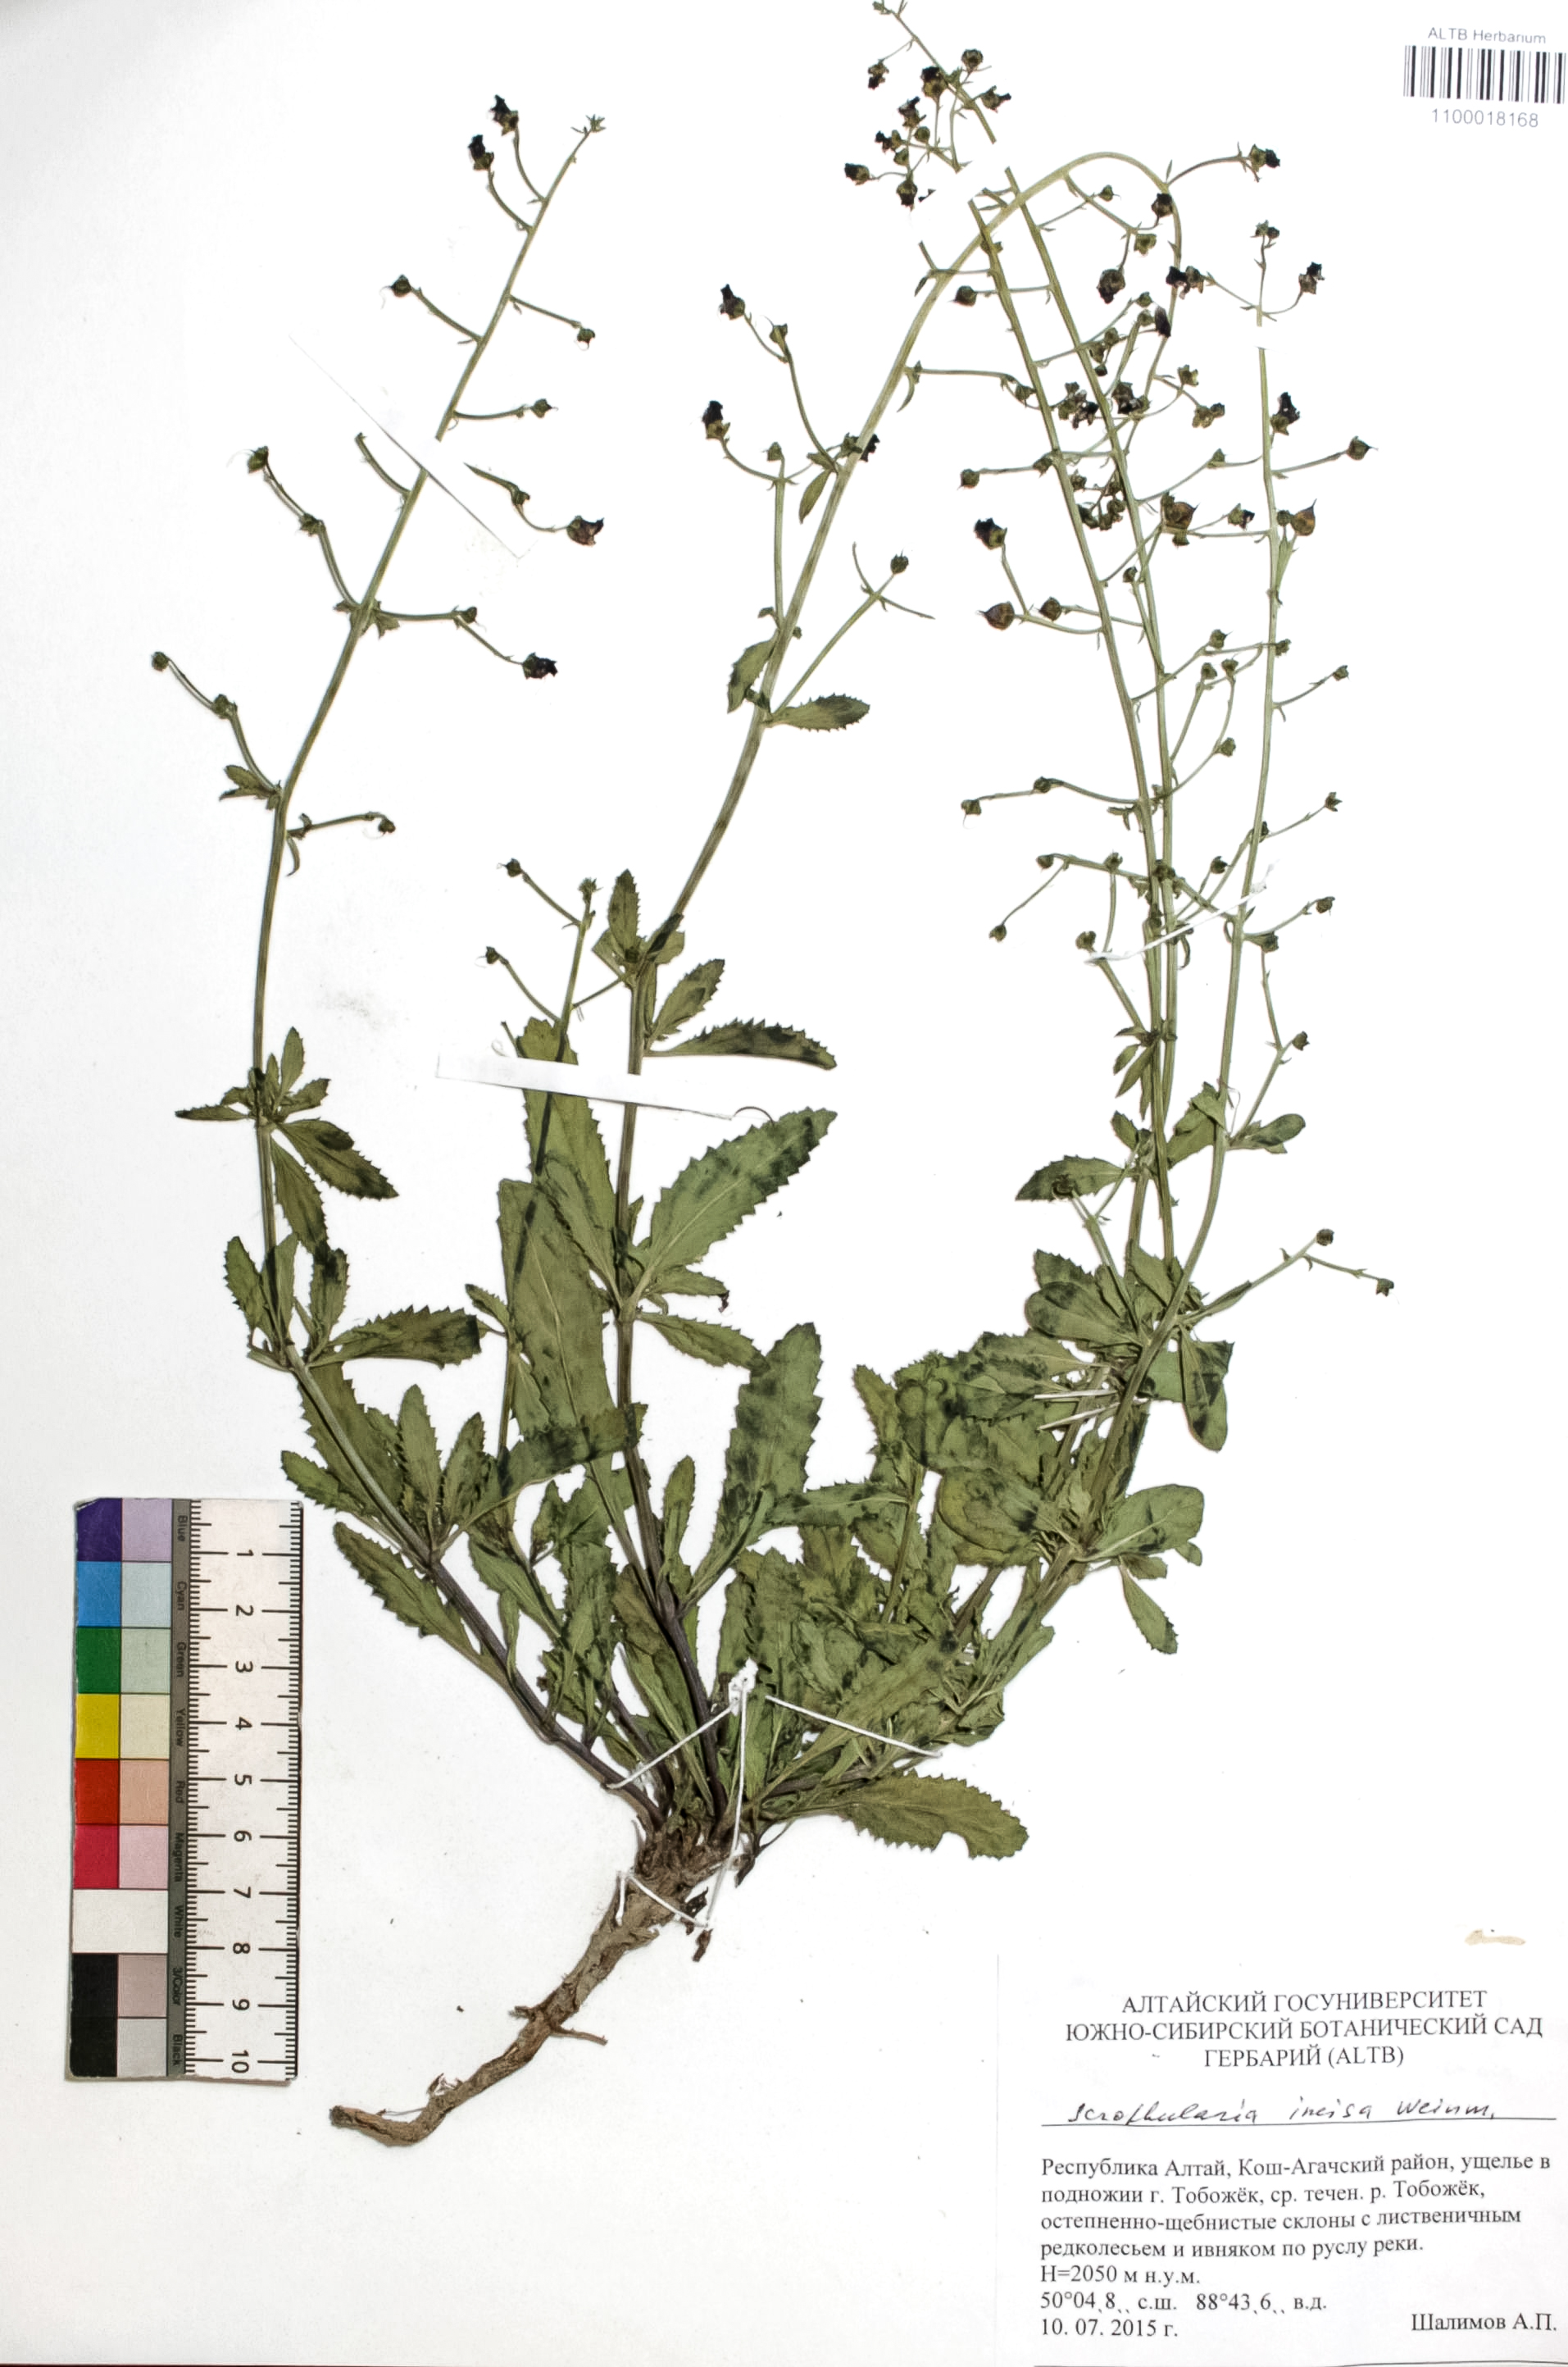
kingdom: Plantae
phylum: Tracheophyta
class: Magnoliopsida
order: Lamiales
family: Scrophulariaceae
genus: Scrophularia
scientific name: Scrophularia incisa
